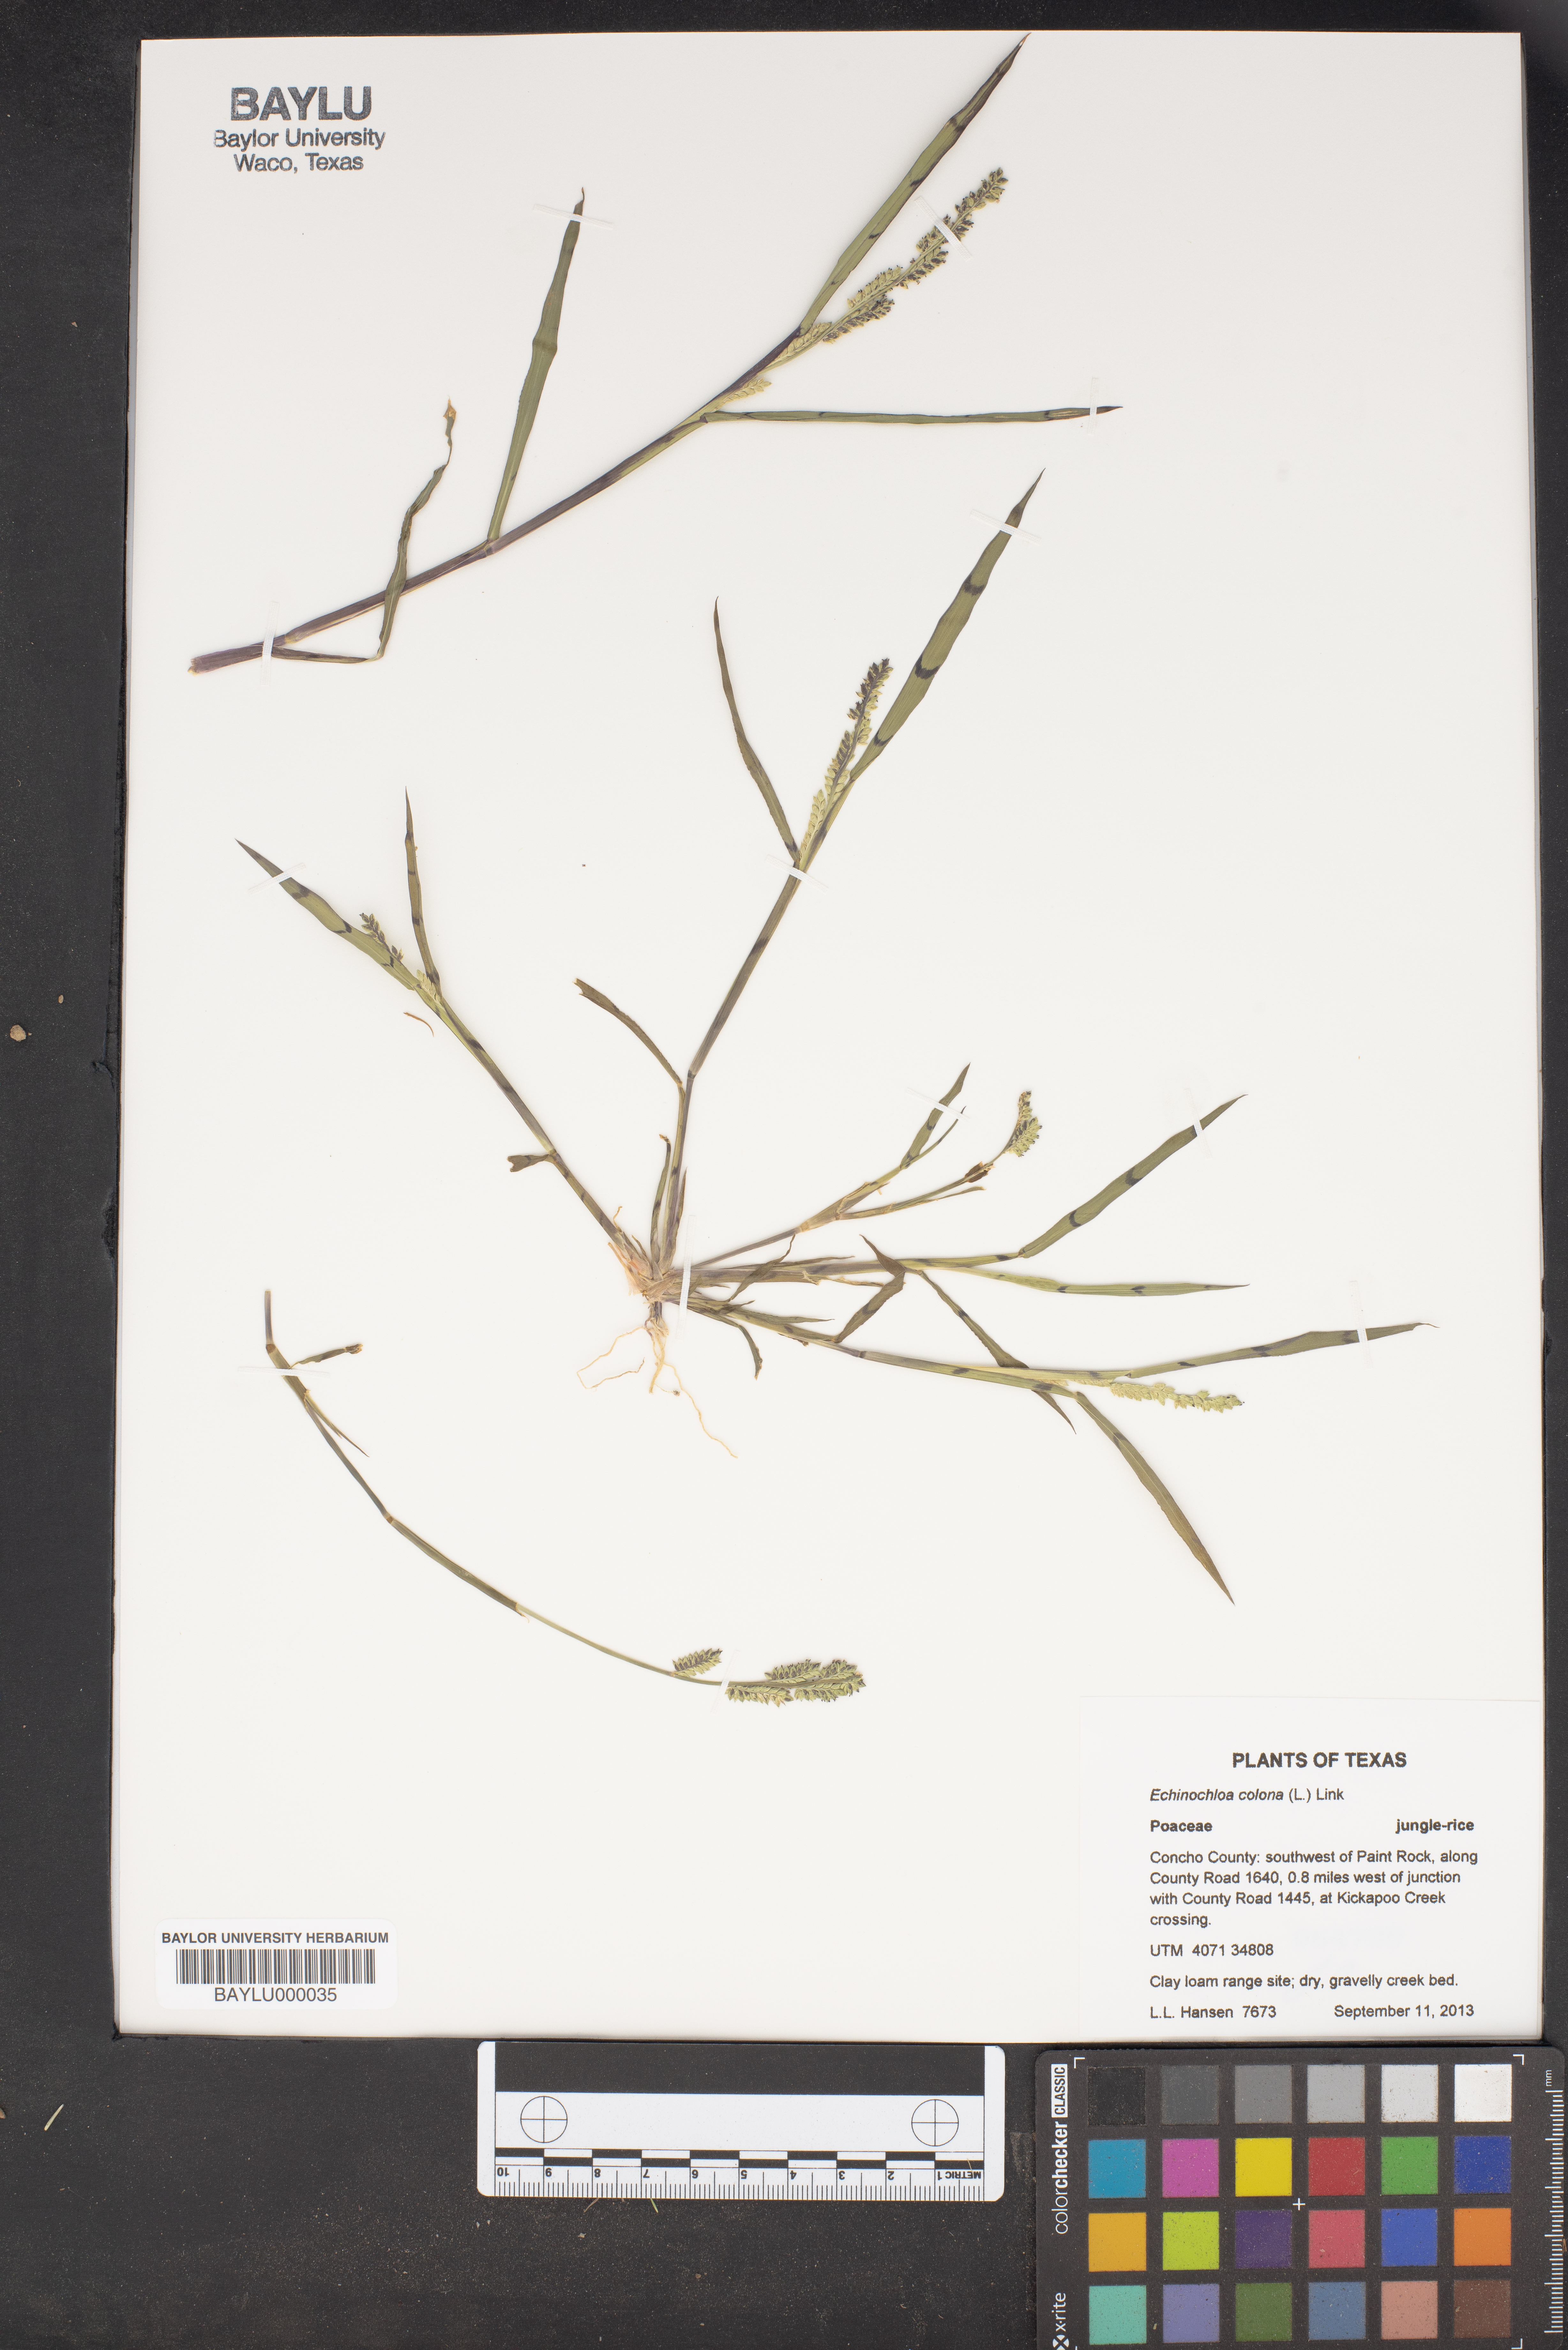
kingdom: Plantae
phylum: Tracheophyta
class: Liliopsida
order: Poales
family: Poaceae
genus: Echinochloa
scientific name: Echinochloa colonum
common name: Jungle rice
